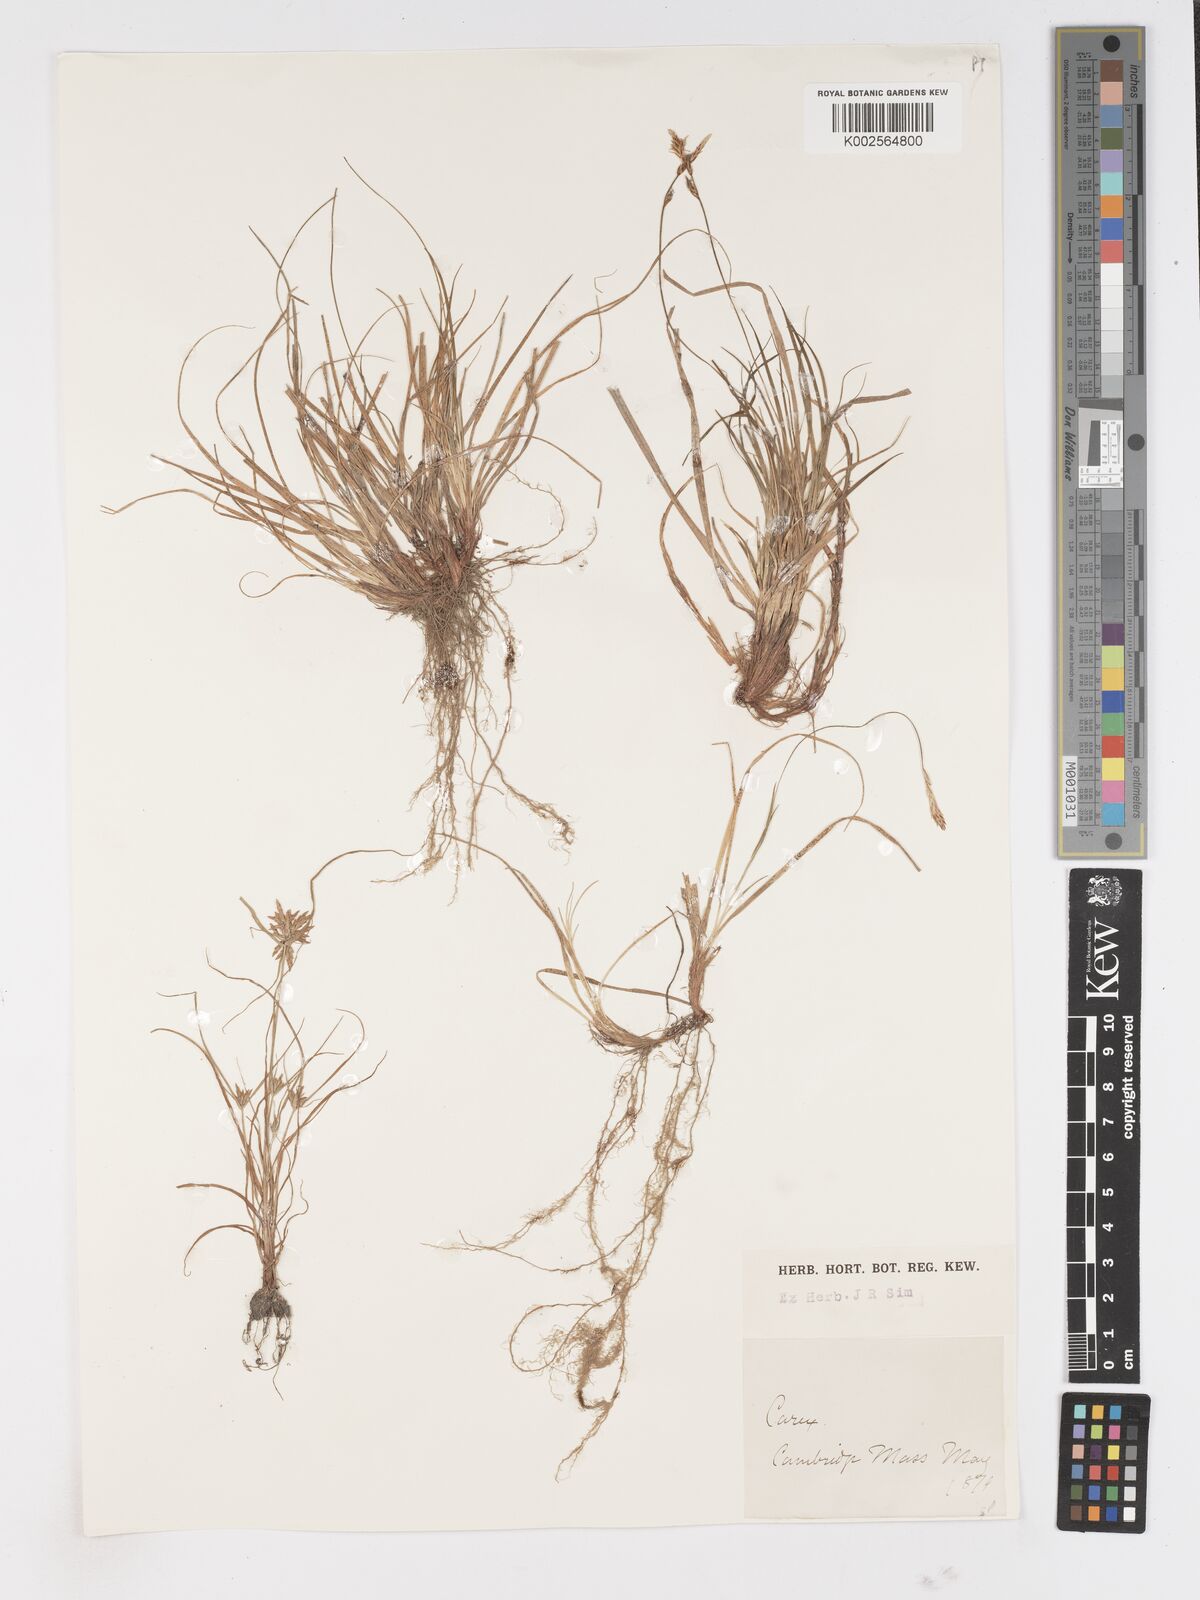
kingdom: Plantae
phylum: Tracheophyta
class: Liliopsida
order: Poales
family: Cyperaceae
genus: Carex
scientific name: Carex
